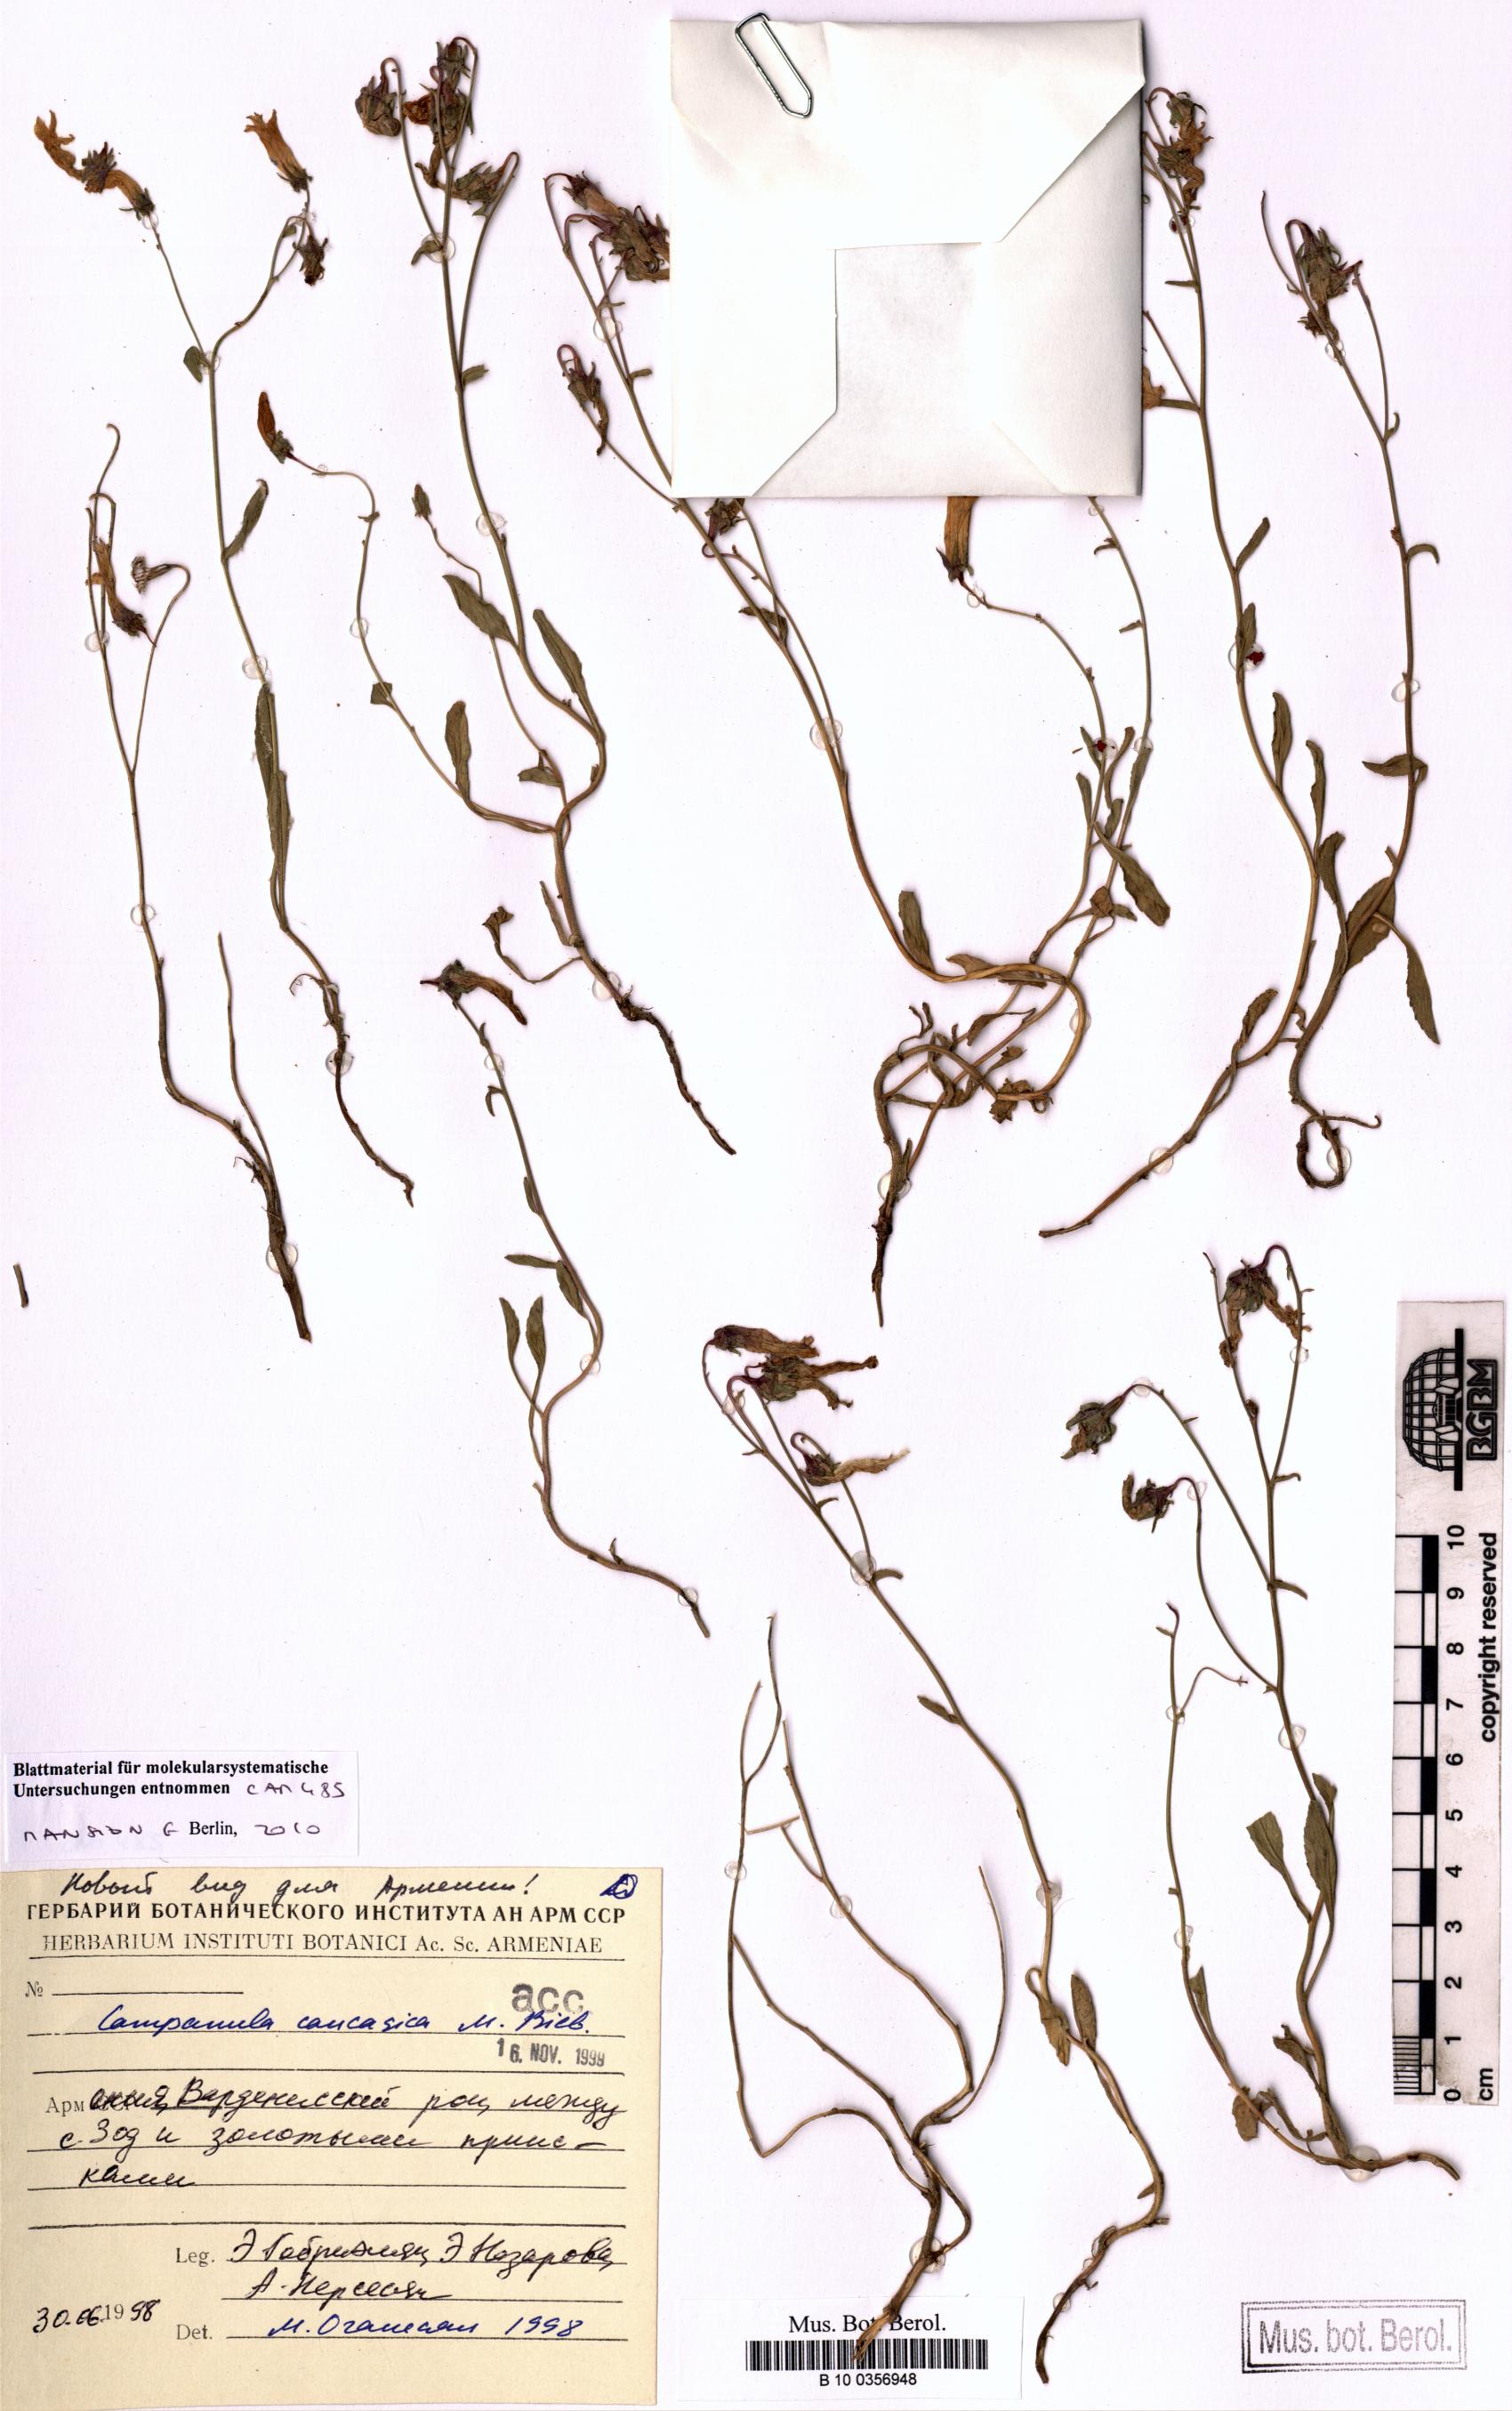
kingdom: Plantae
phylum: Tracheophyta
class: Magnoliopsida
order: Asterales
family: Campanulaceae
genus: Campanula
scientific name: Campanula caucasica
